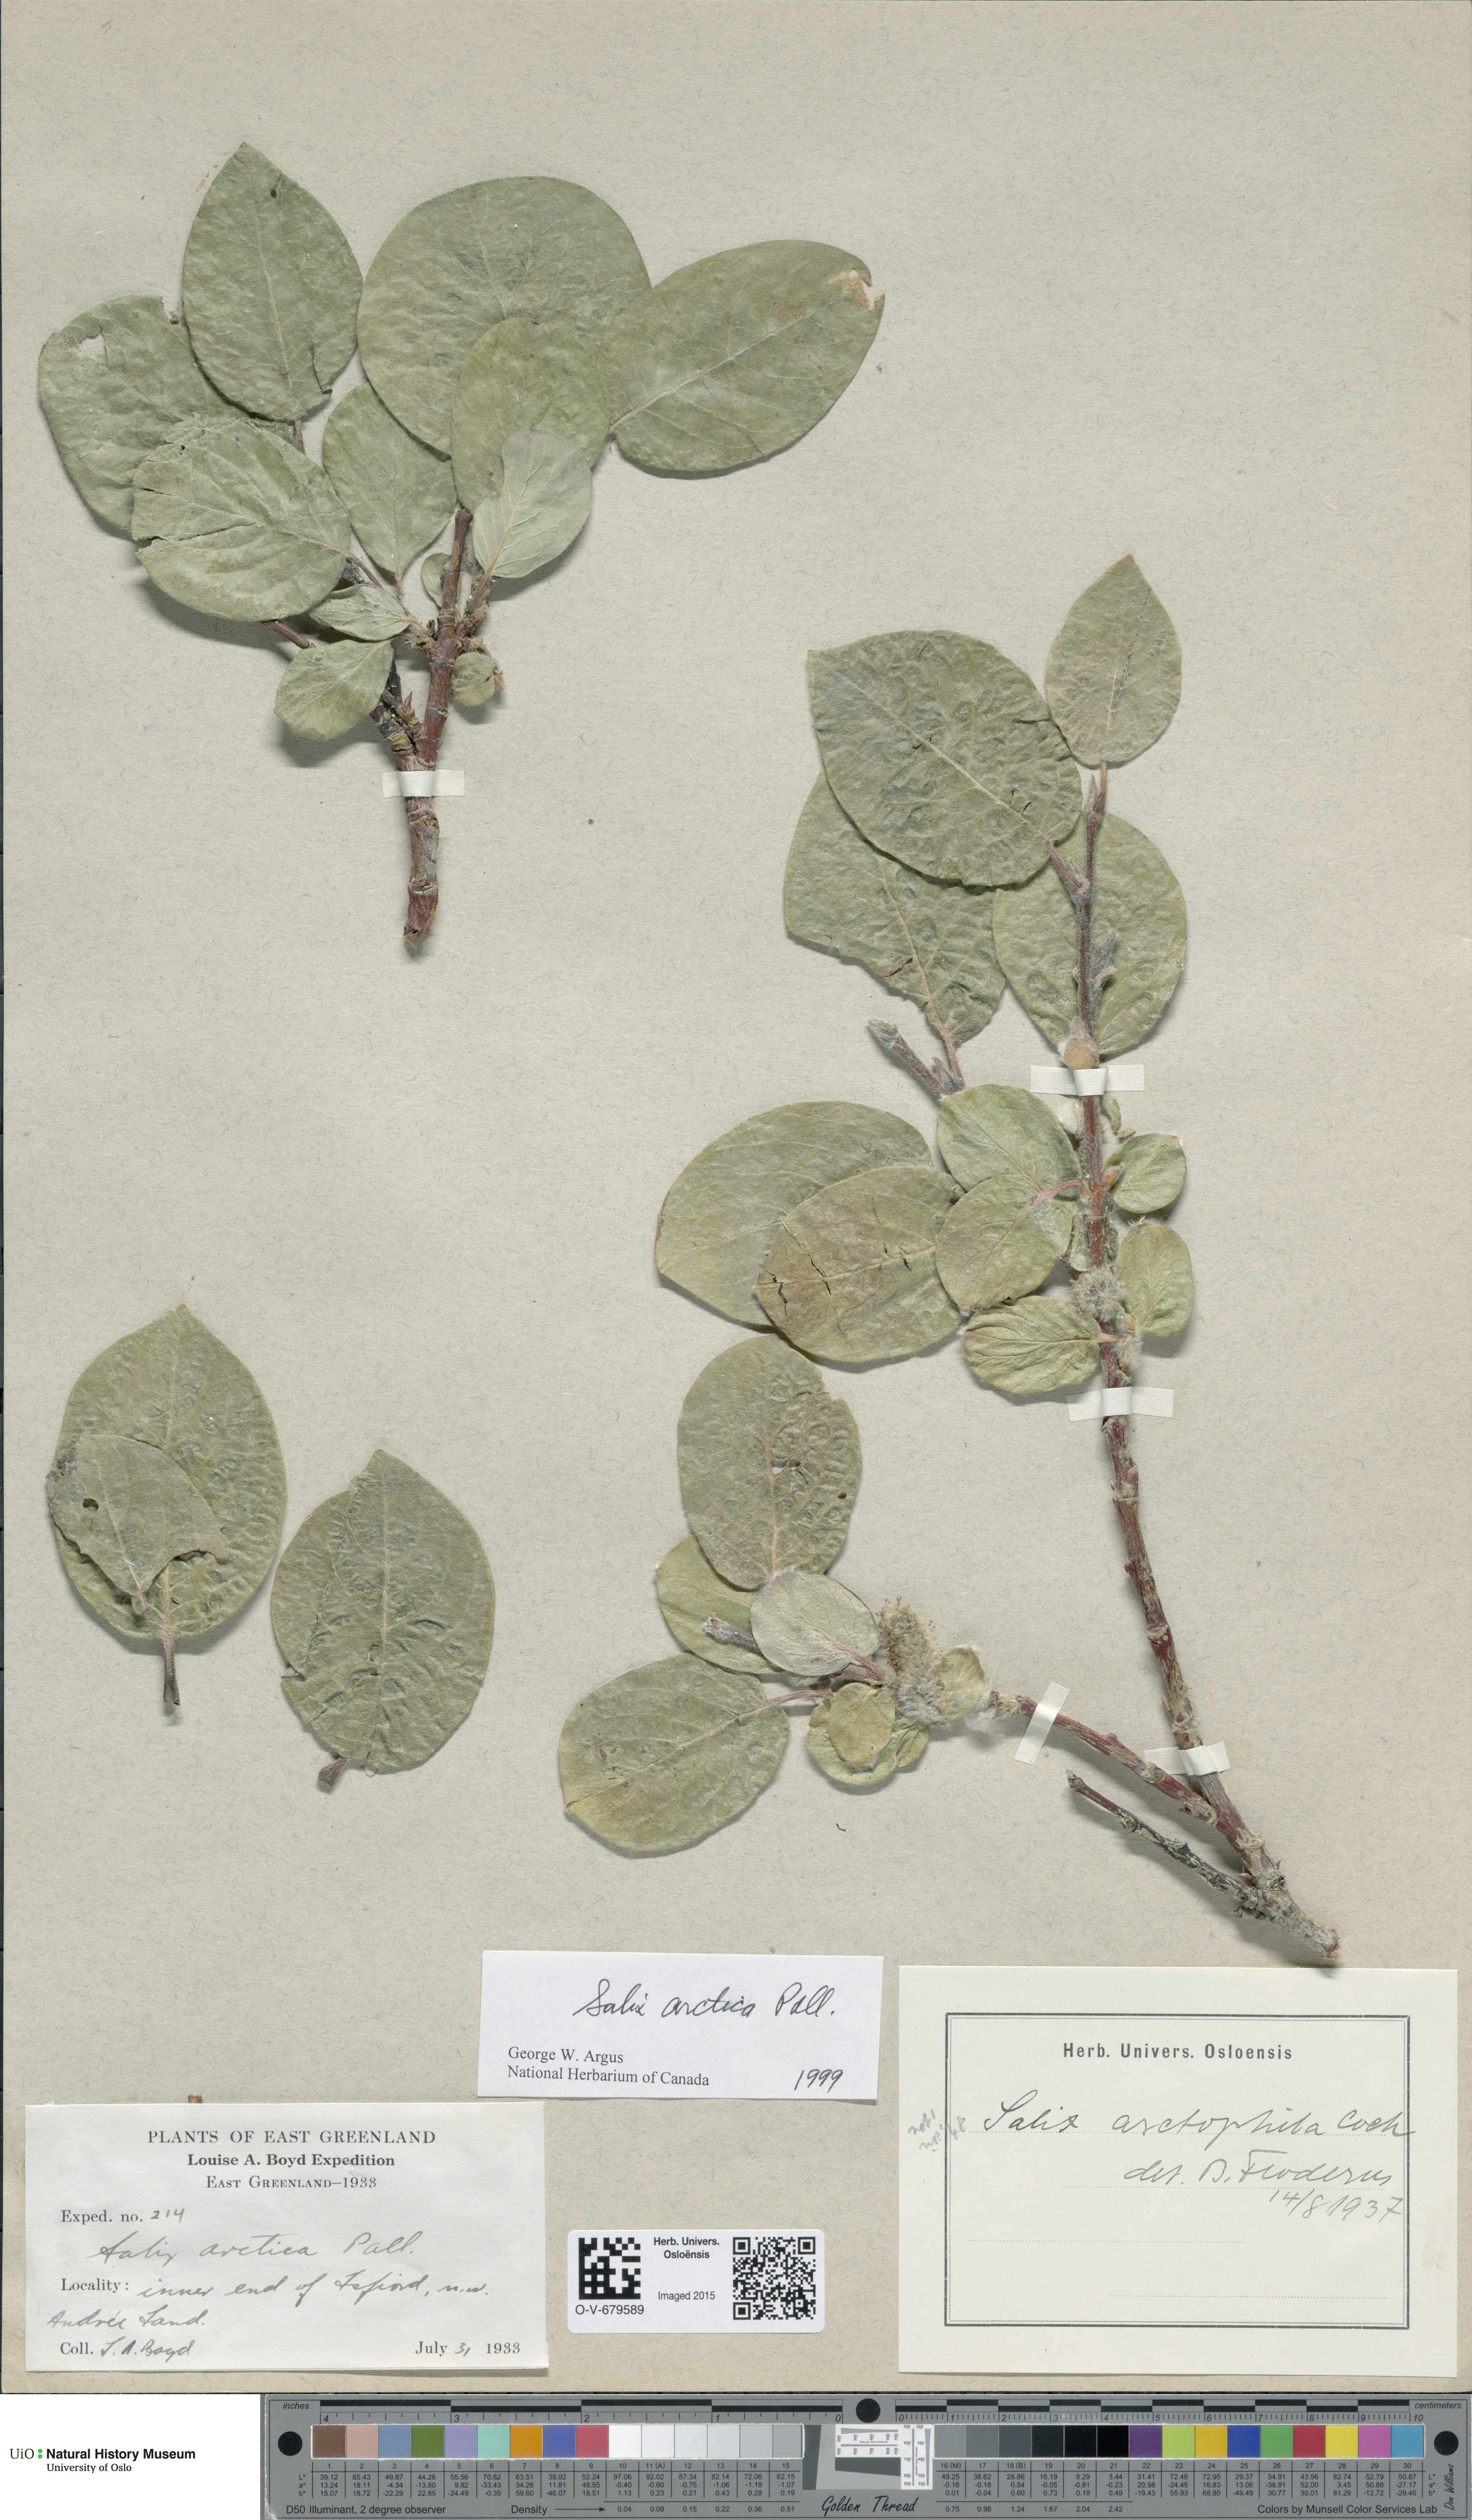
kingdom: Plantae
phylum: Tracheophyta
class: Magnoliopsida
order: Malpighiales
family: Salicaceae
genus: Salix
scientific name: Salix arctica
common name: Arctic willow
